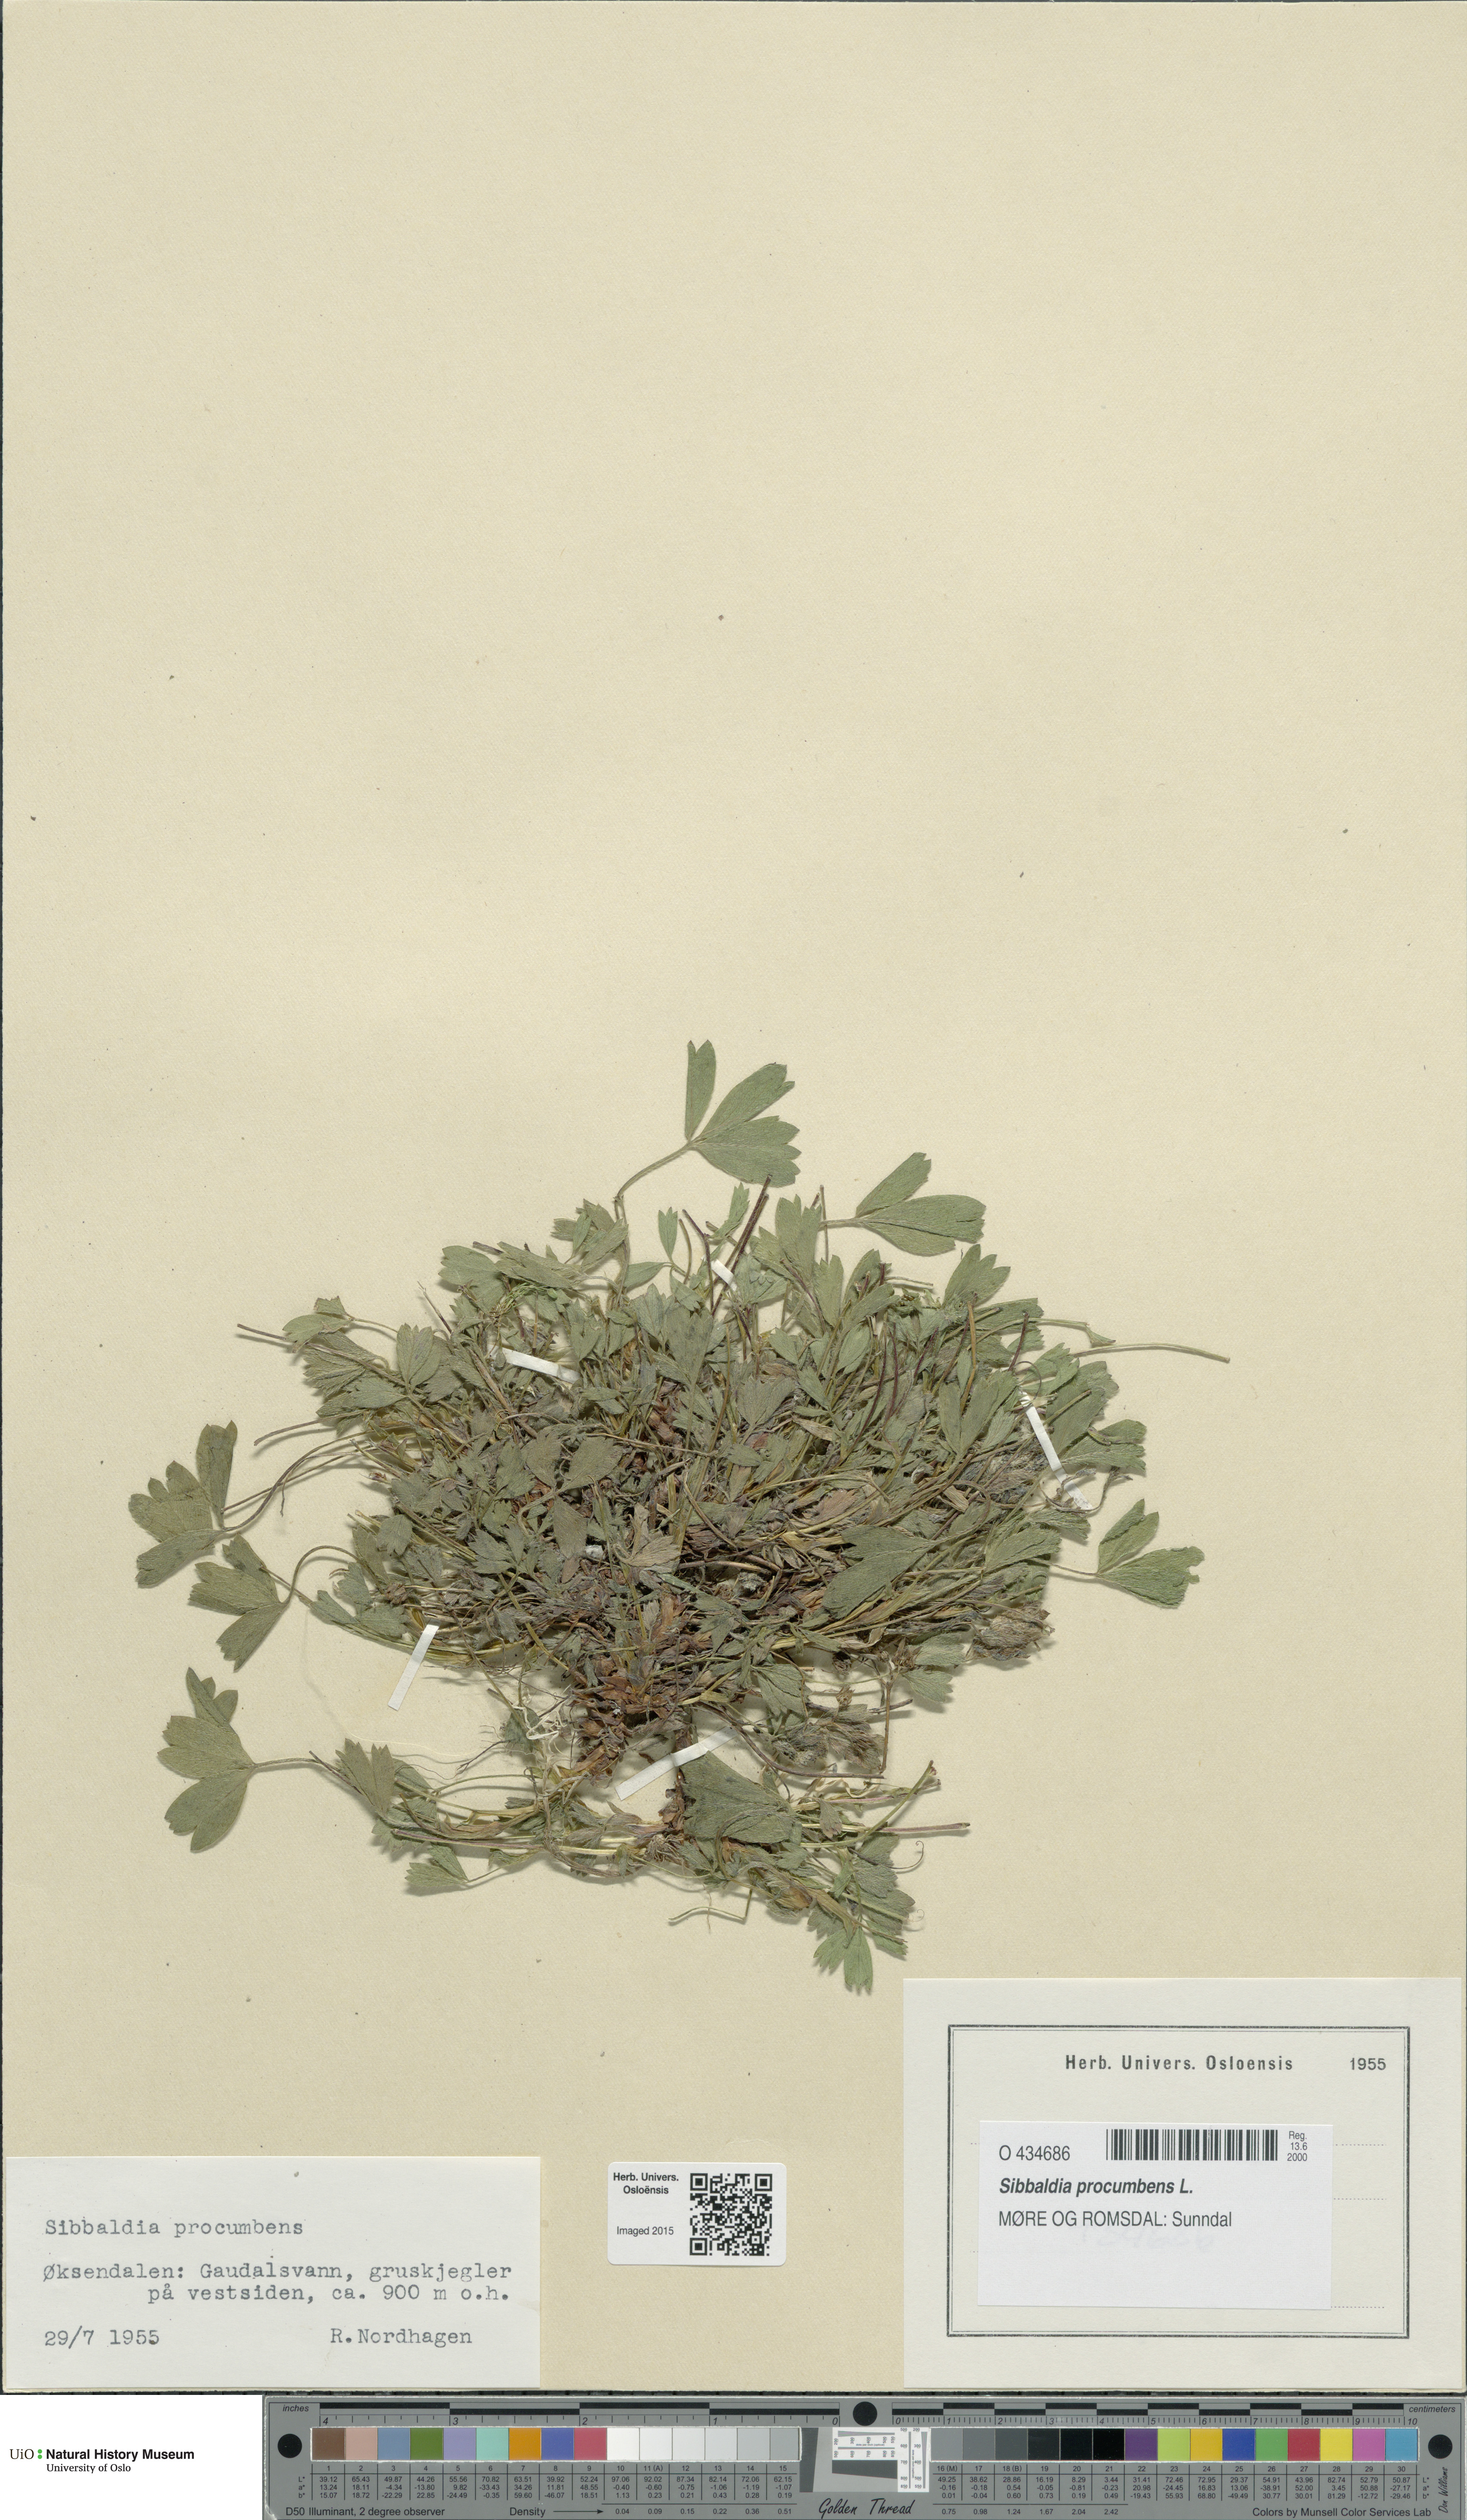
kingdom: Plantae
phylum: Tracheophyta
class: Magnoliopsida
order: Rosales
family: Rosaceae
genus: Sibbaldia
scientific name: Sibbaldia procumbens
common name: Creeping sibbaldia
